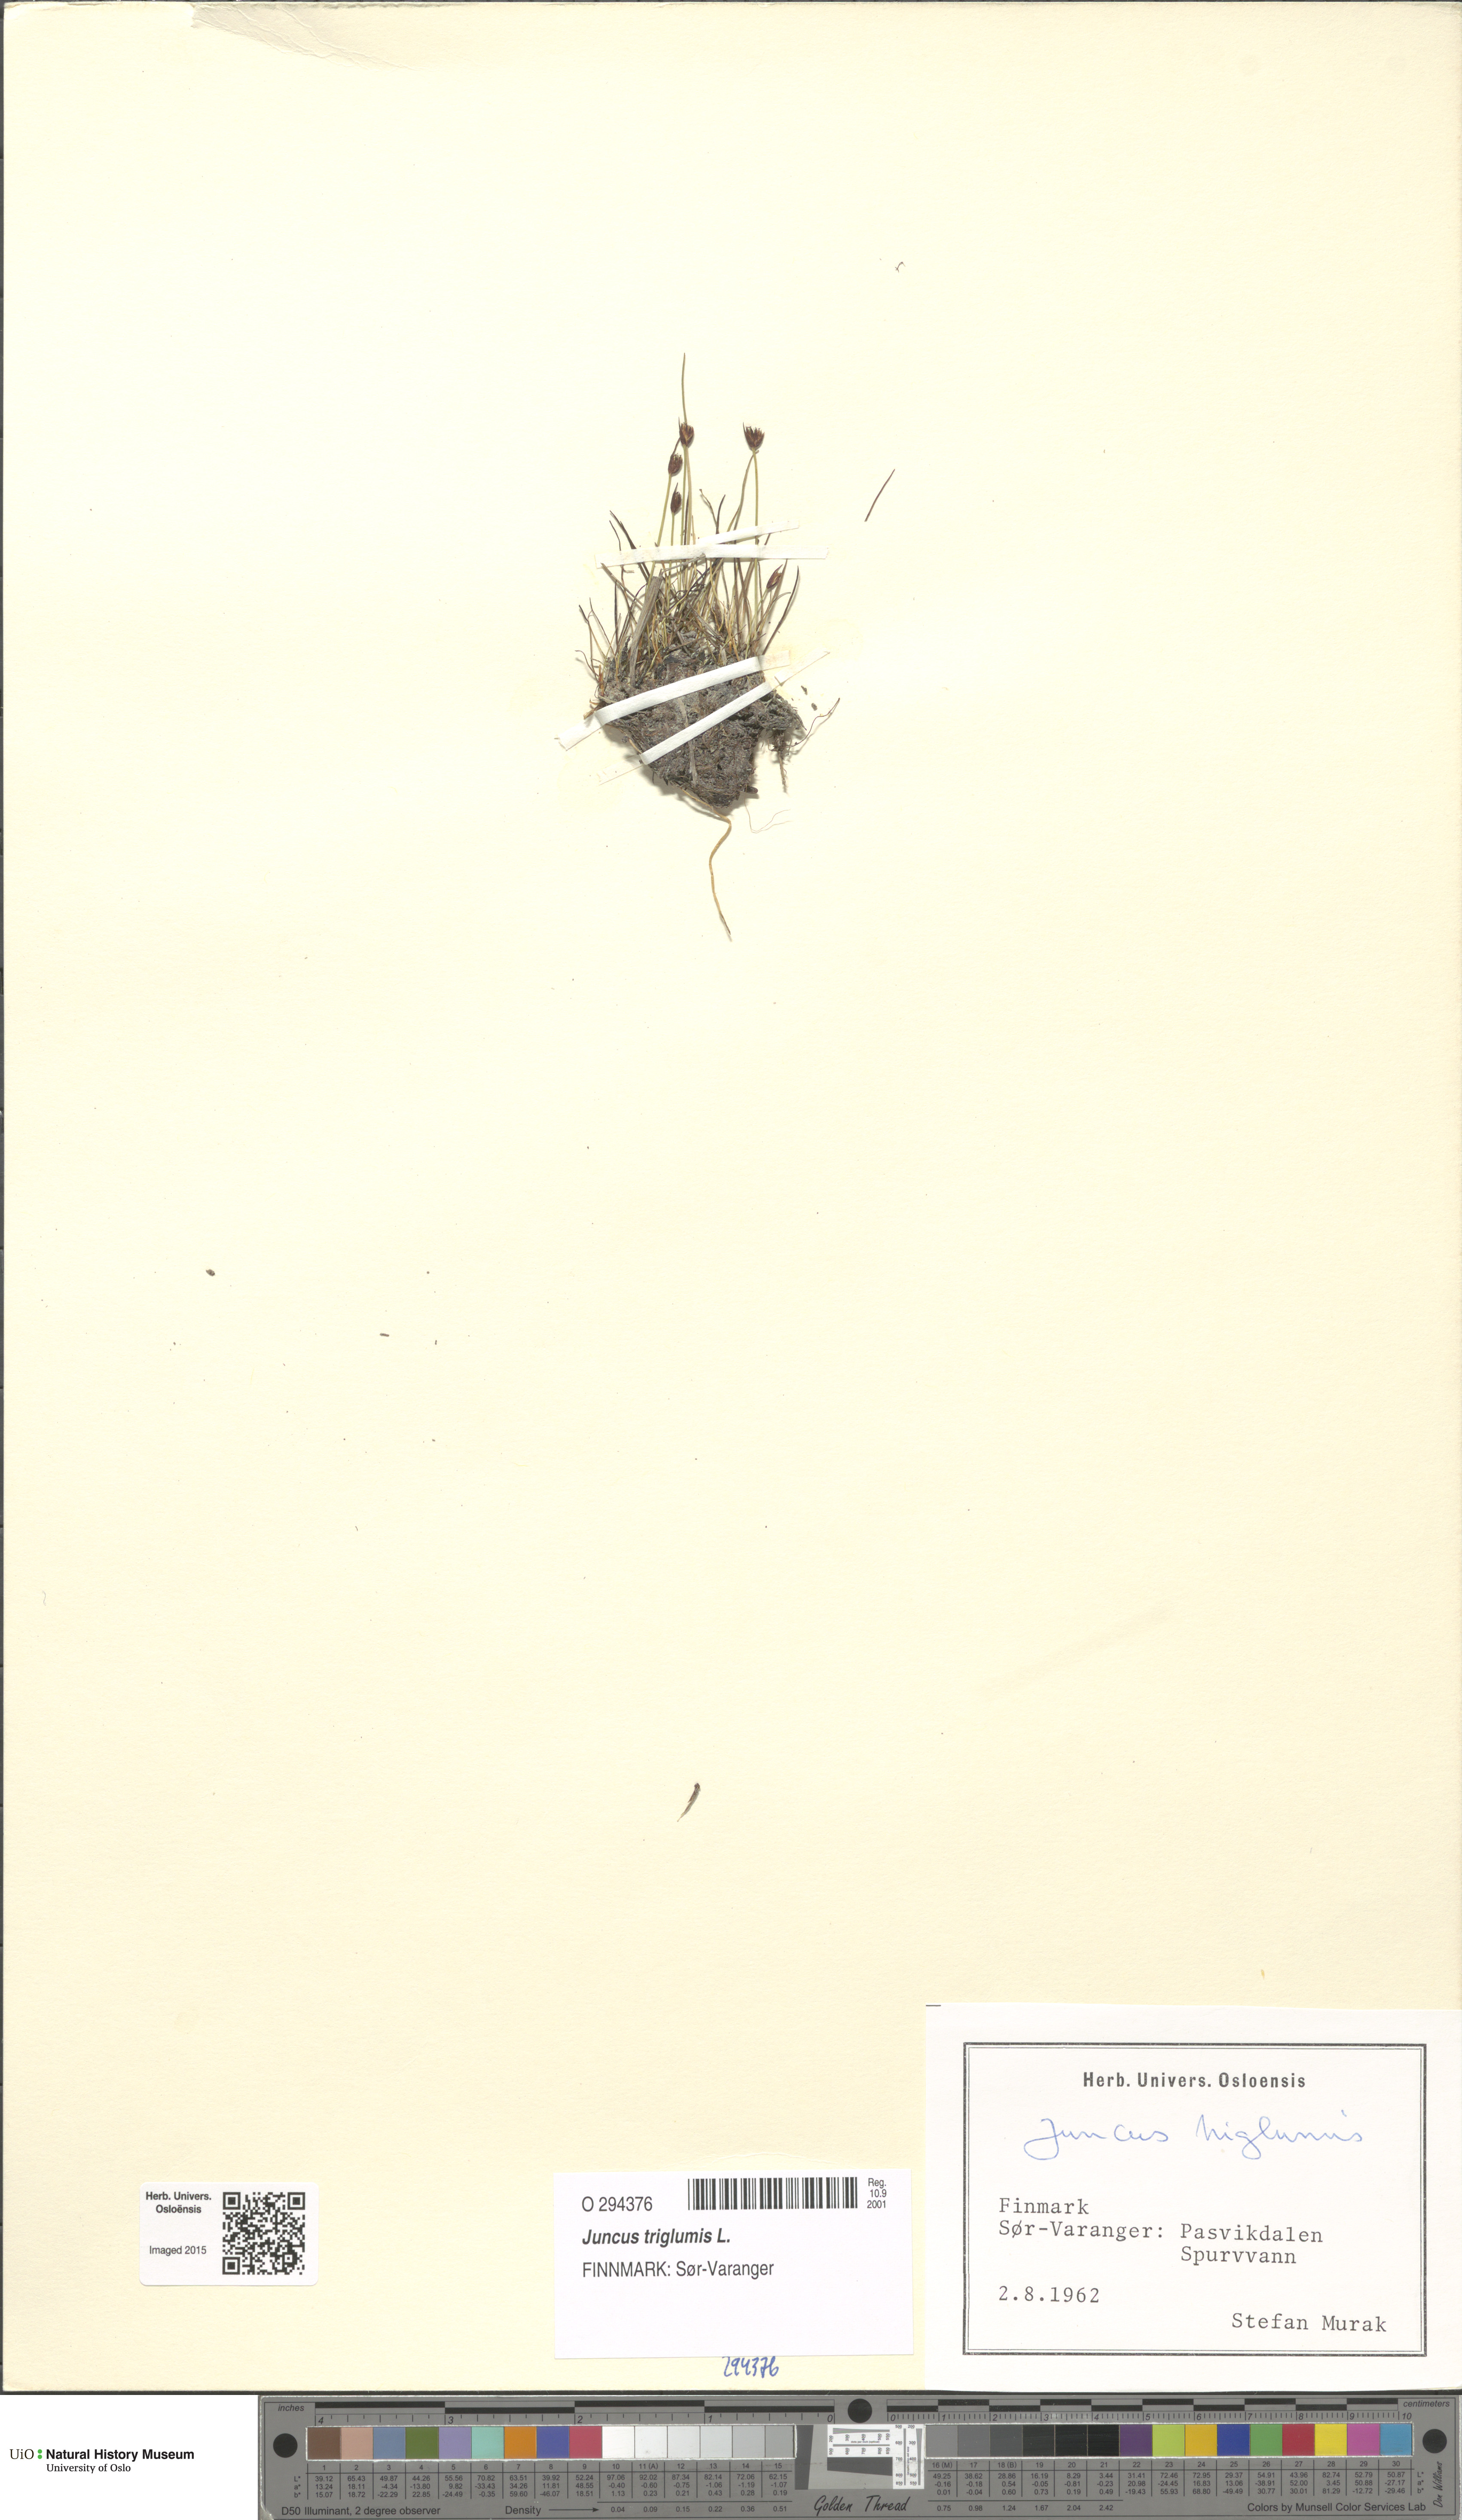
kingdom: Plantae
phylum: Tracheophyta
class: Liliopsida
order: Poales
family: Juncaceae
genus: Juncus
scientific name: Juncus triglumis
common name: Three-flowered rush
